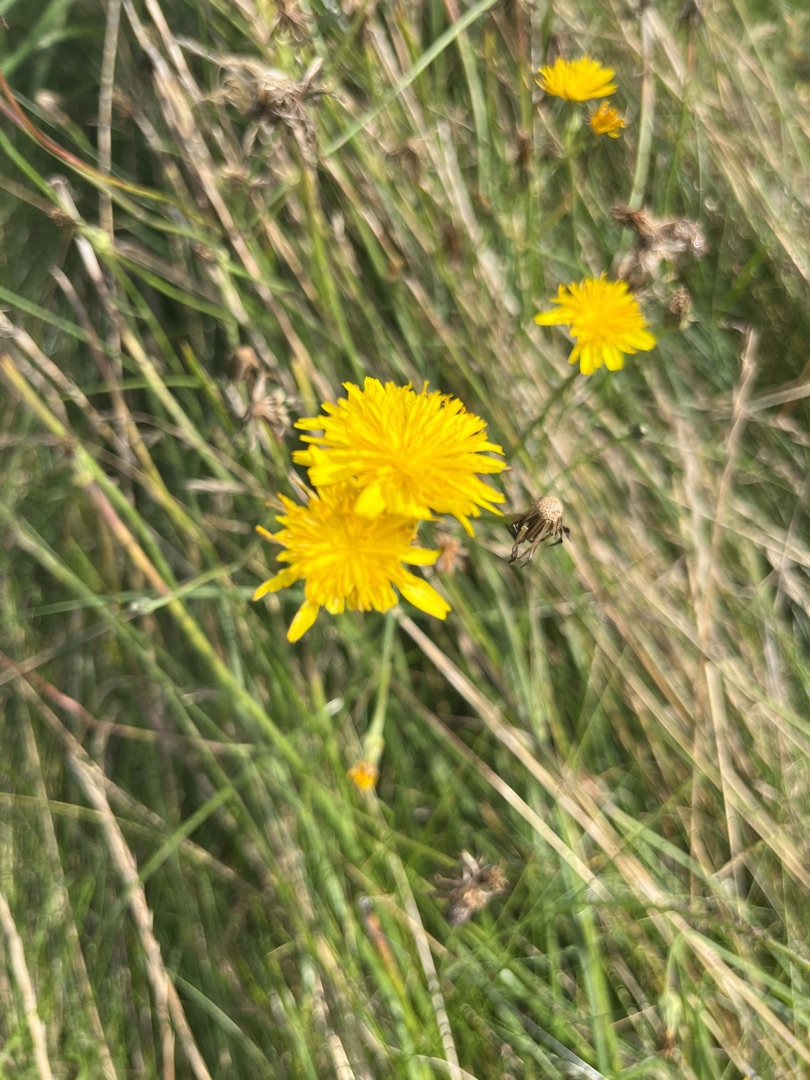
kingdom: Plantae
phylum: Tracheophyta
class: Magnoliopsida
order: Asterales
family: Asteraceae
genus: Hypochaeris
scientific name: Hypochaeris radicata
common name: Almindelig kongepen
